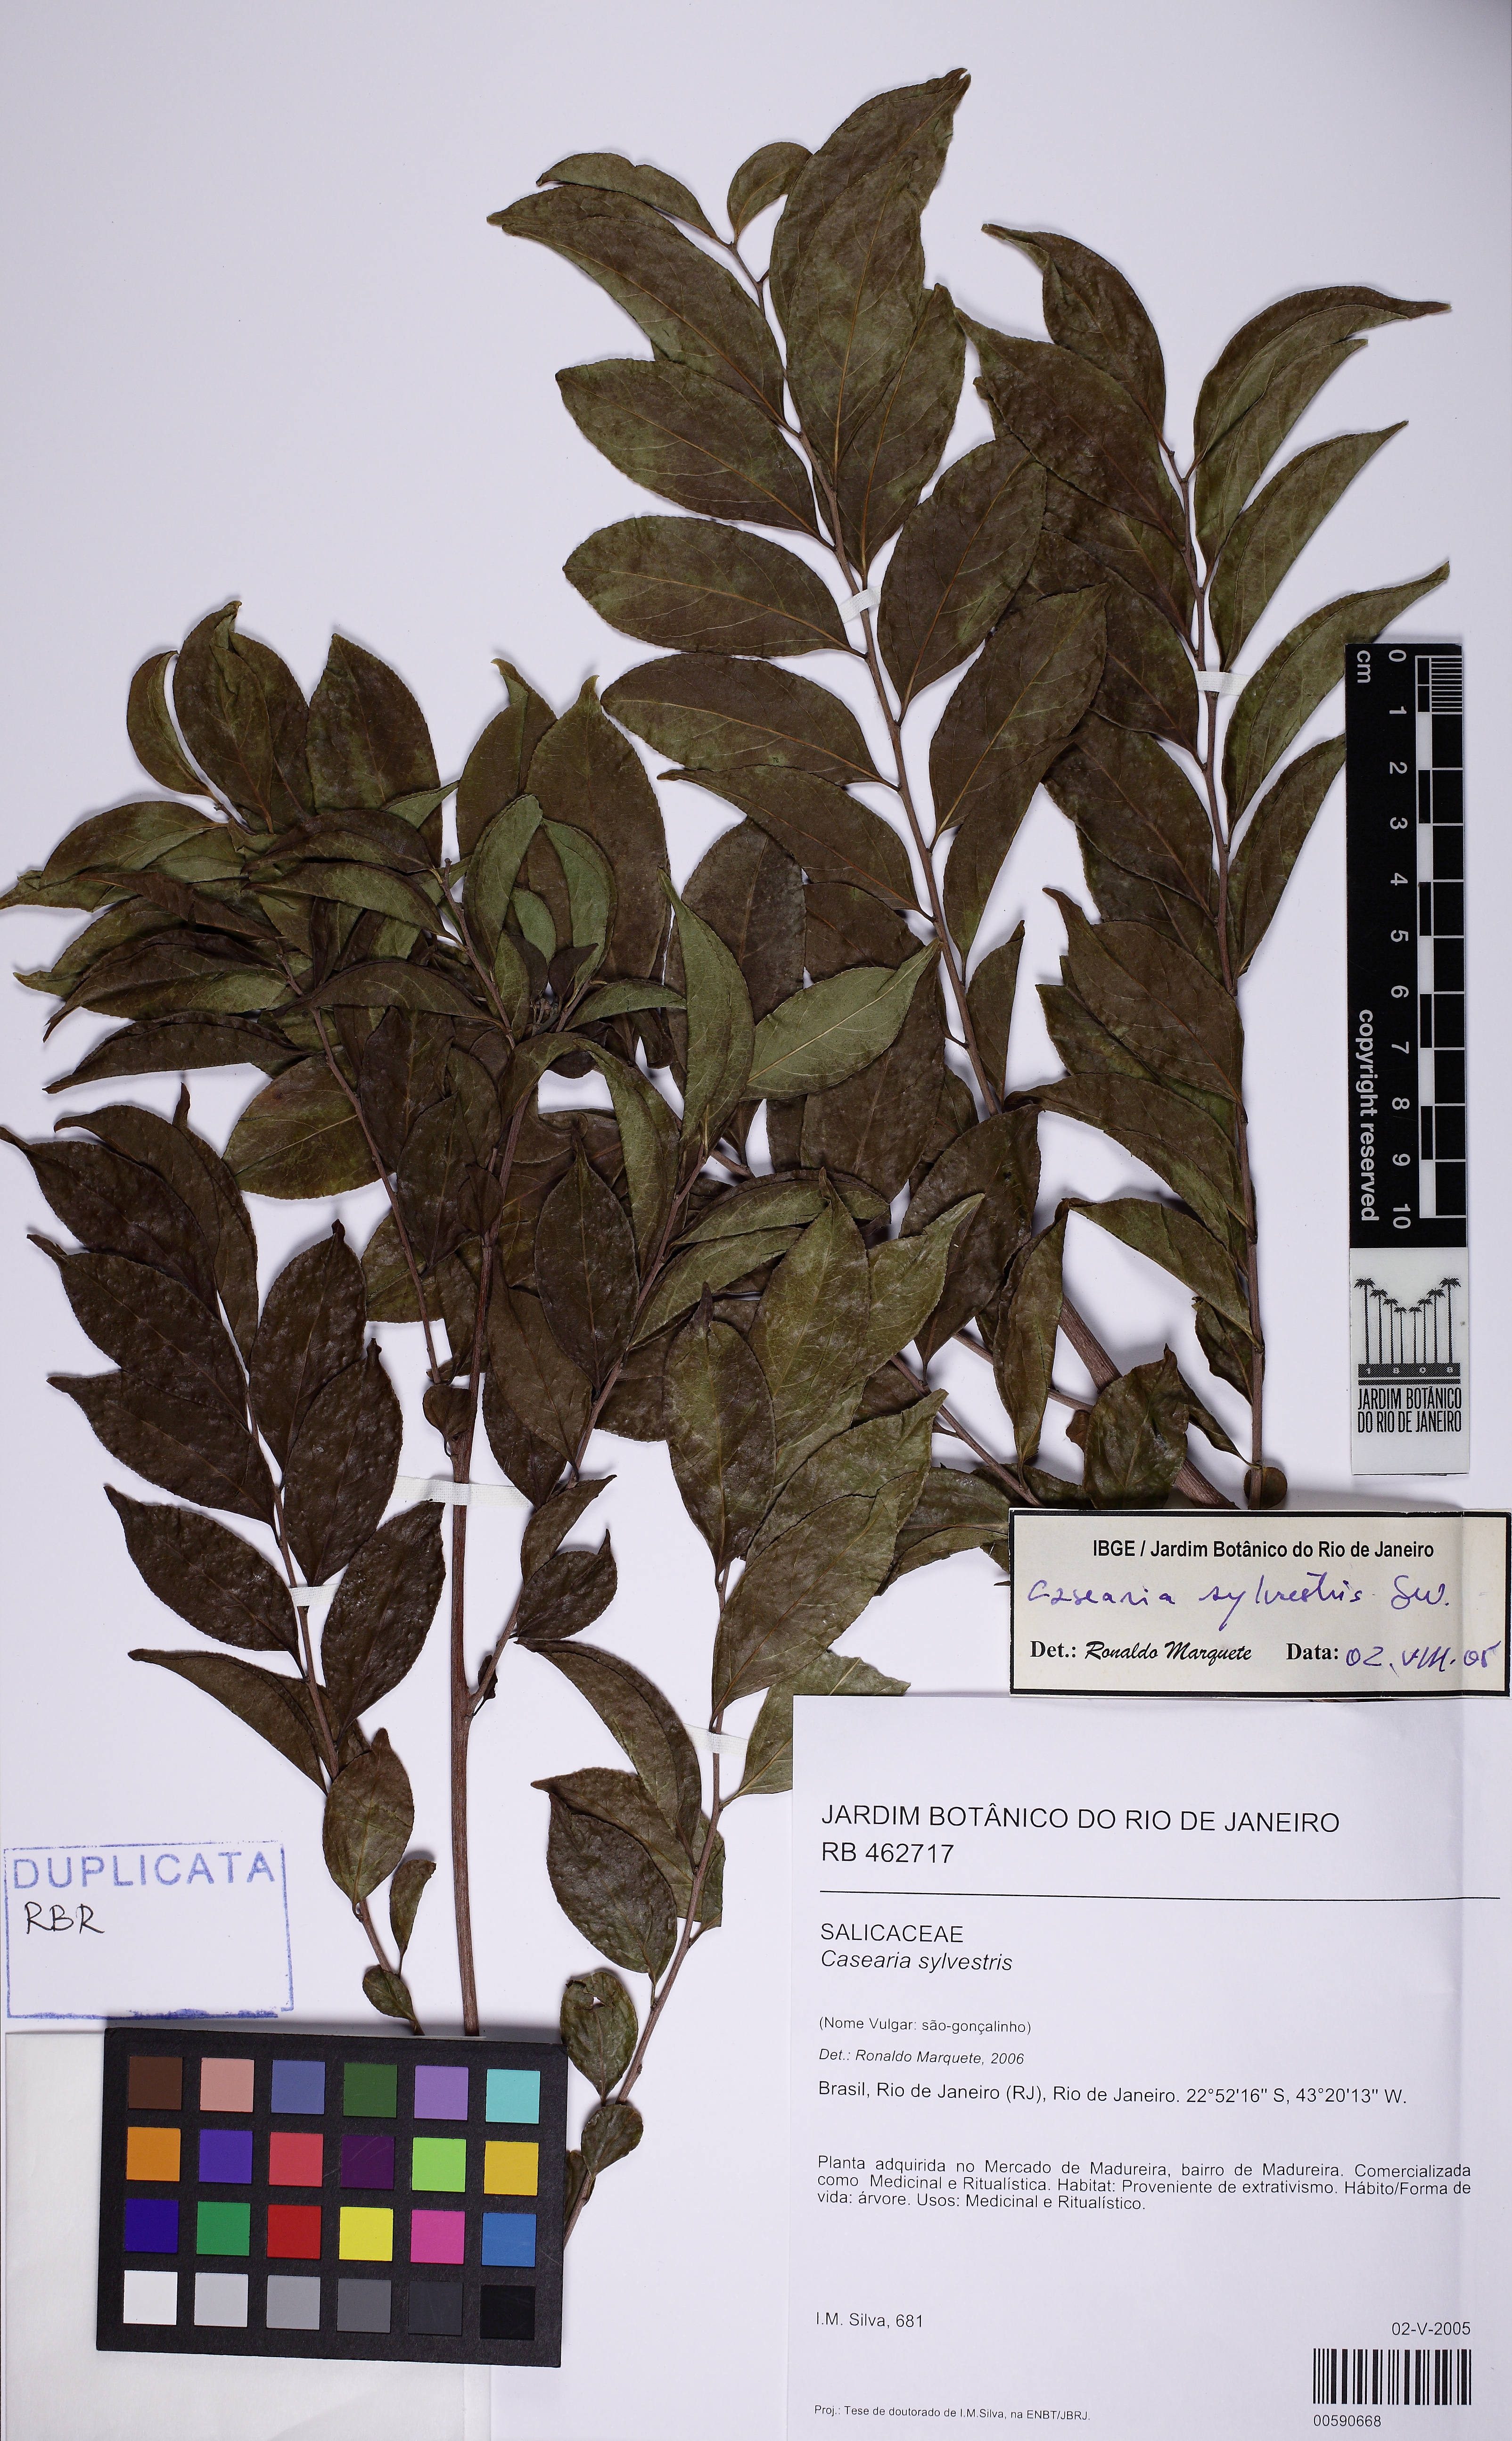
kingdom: Plantae
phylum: Tracheophyta
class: Magnoliopsida
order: Malpighiales
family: Salicaceae
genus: Casearia
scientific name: Casearia sylvestris
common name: Wild sage
